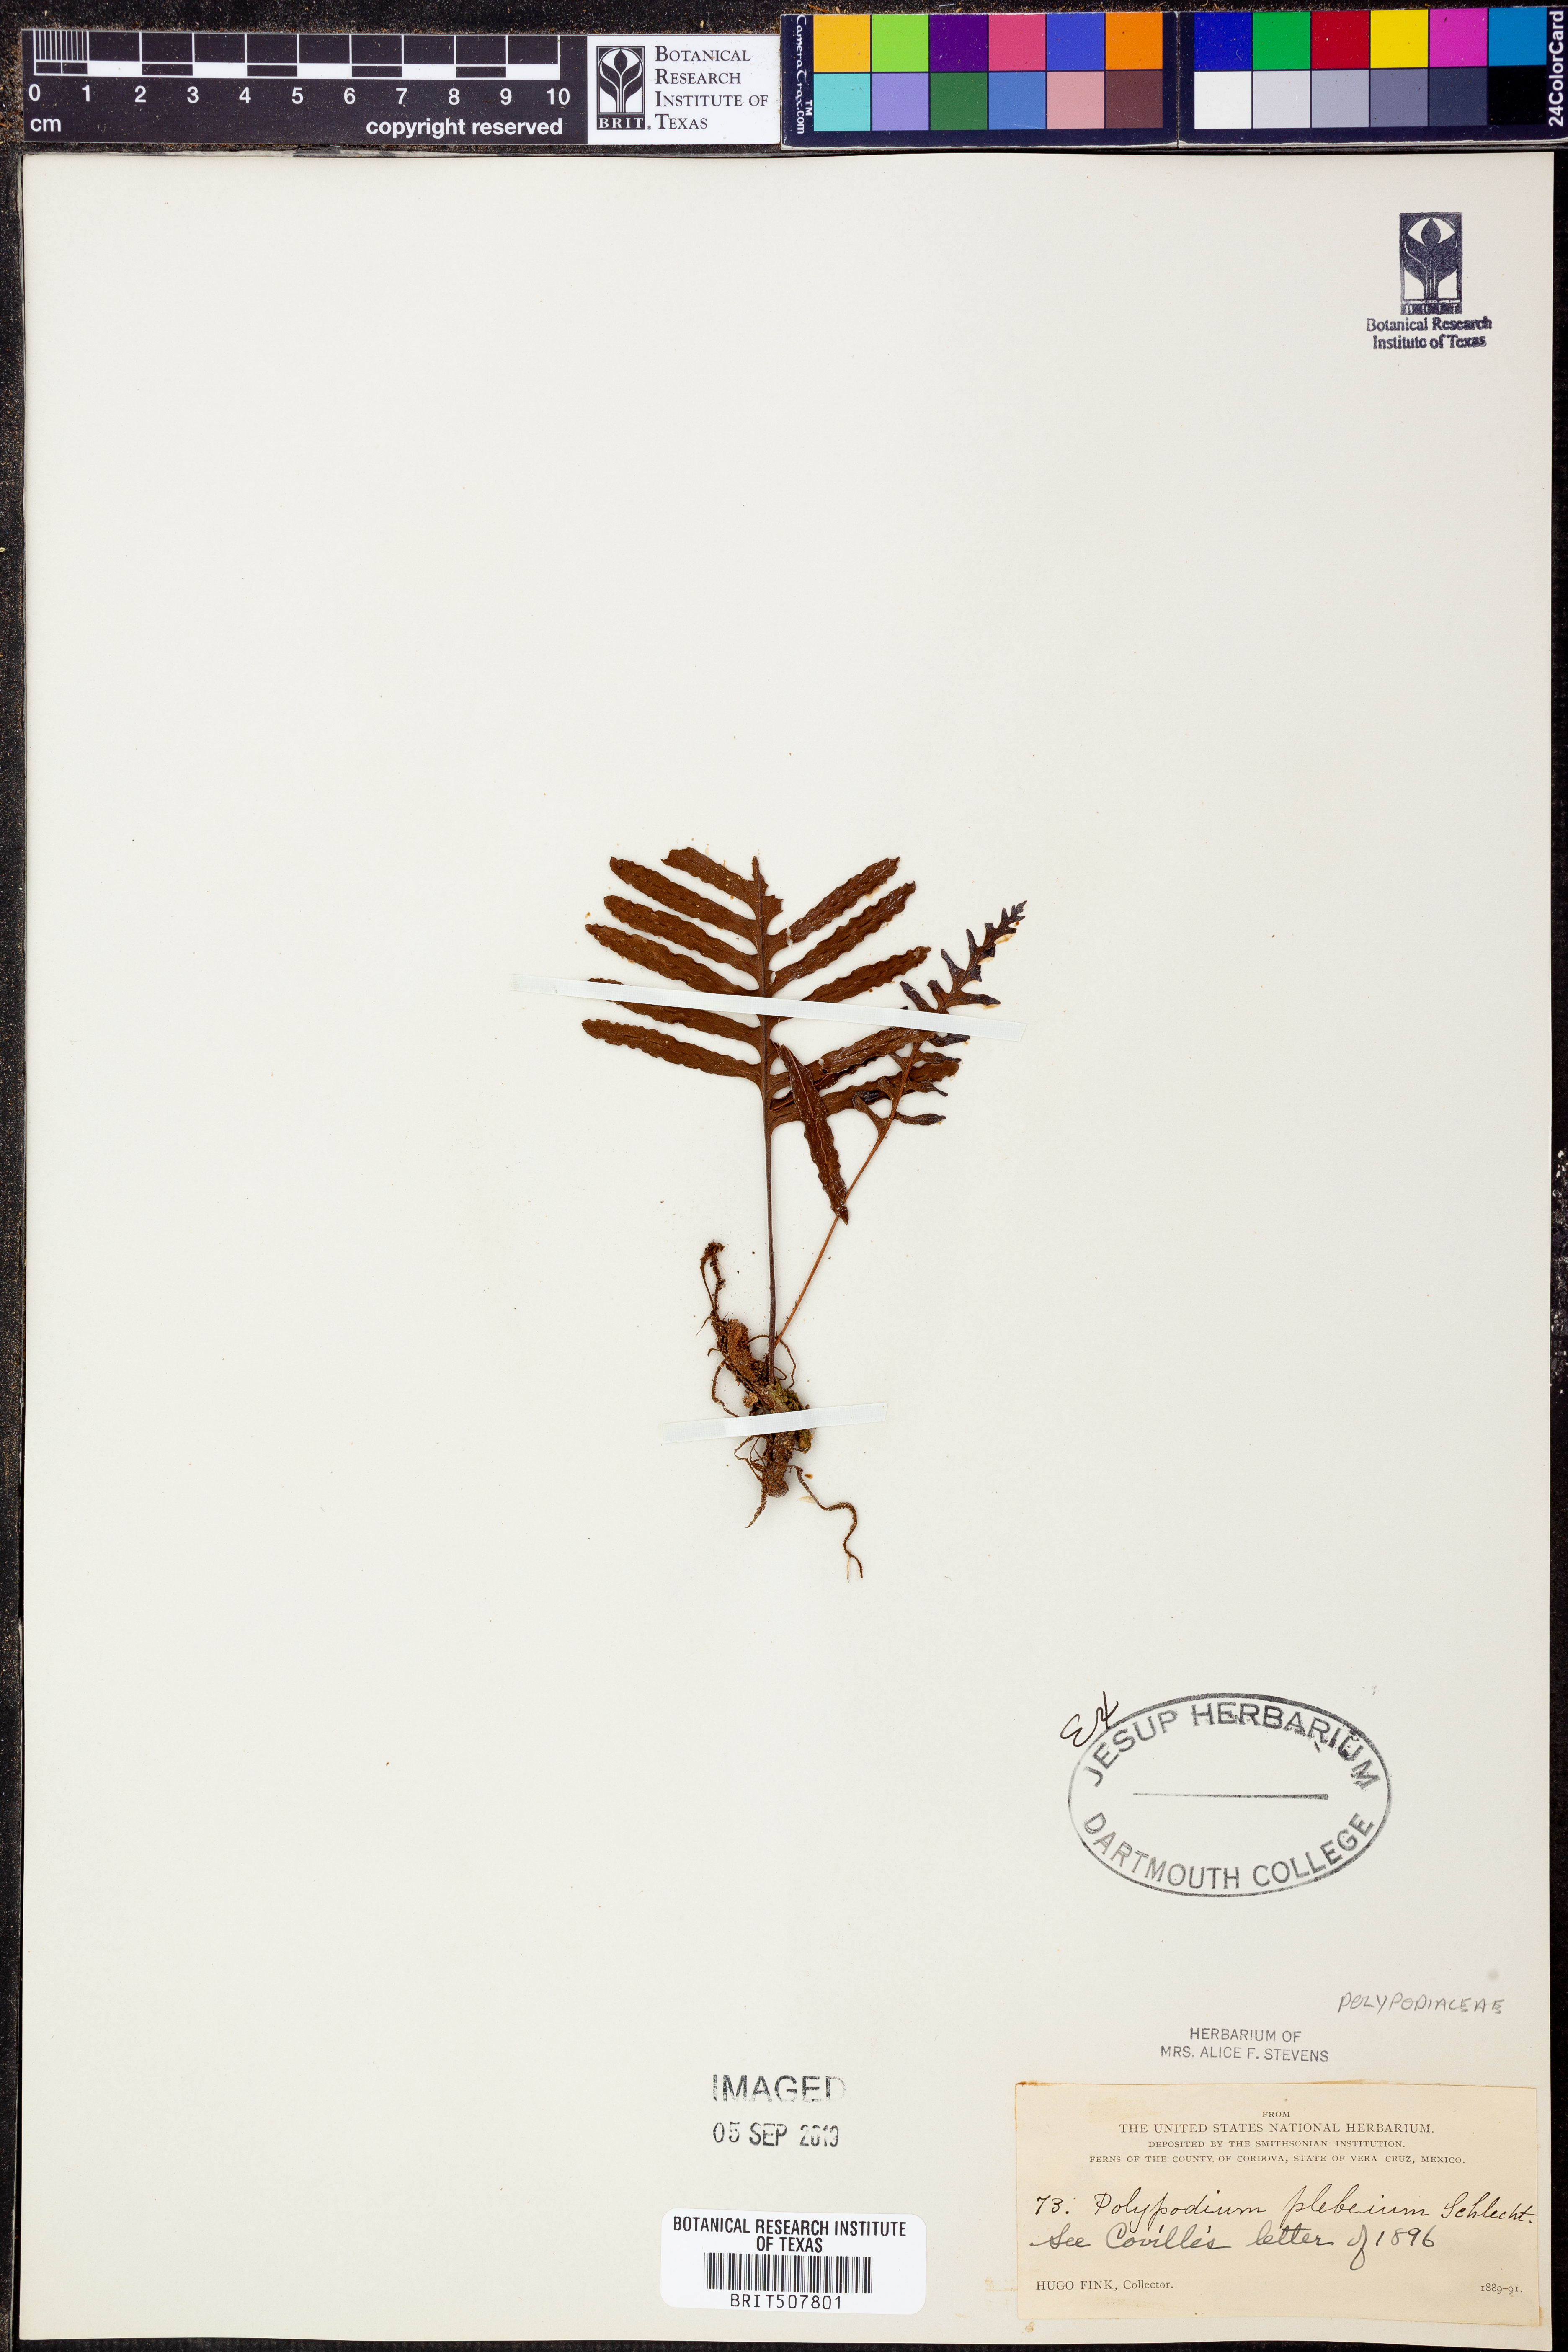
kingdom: Plantae
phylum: Tracheophyta
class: Polypodiopsida
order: Polypodiales
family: Polypodiaceae
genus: Pleopeltis
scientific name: Pleopeltis plebeia
